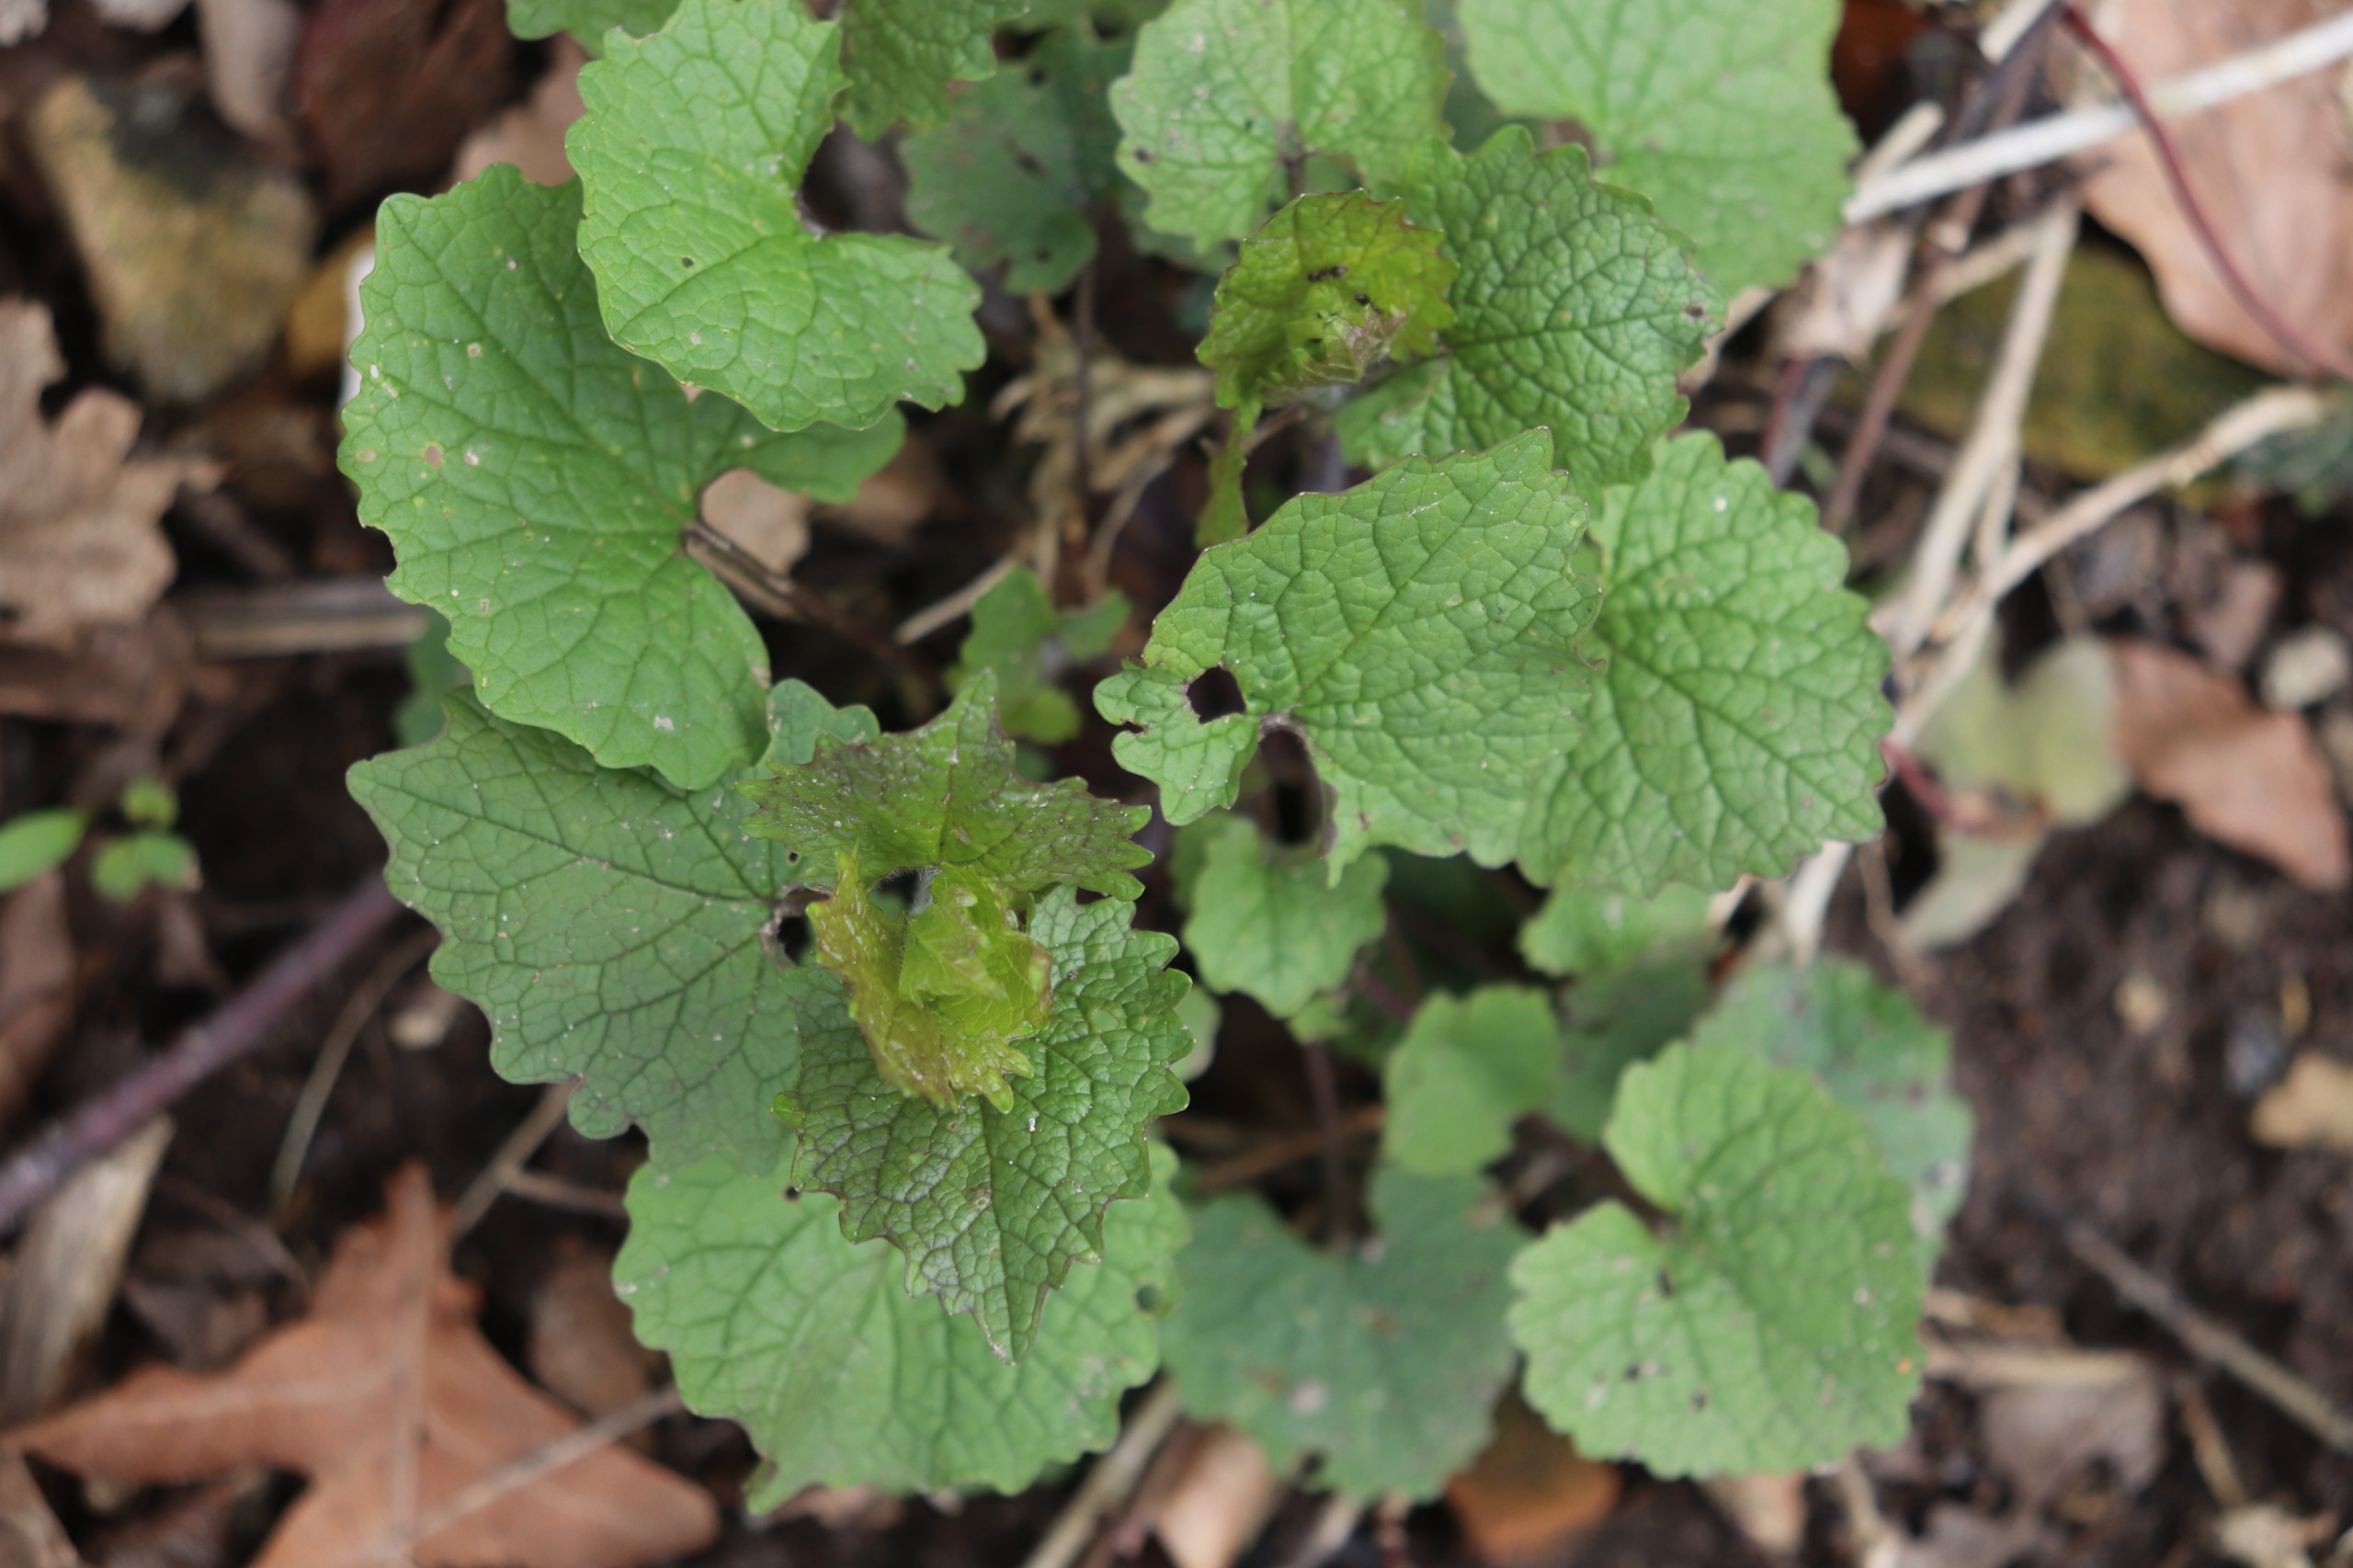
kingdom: Plantae
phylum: Tracheophyta
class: Magnoliopsida
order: Brassicales
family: Brassicaceae
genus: Alliaria
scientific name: Alliaria petiolata
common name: Løgkarse
